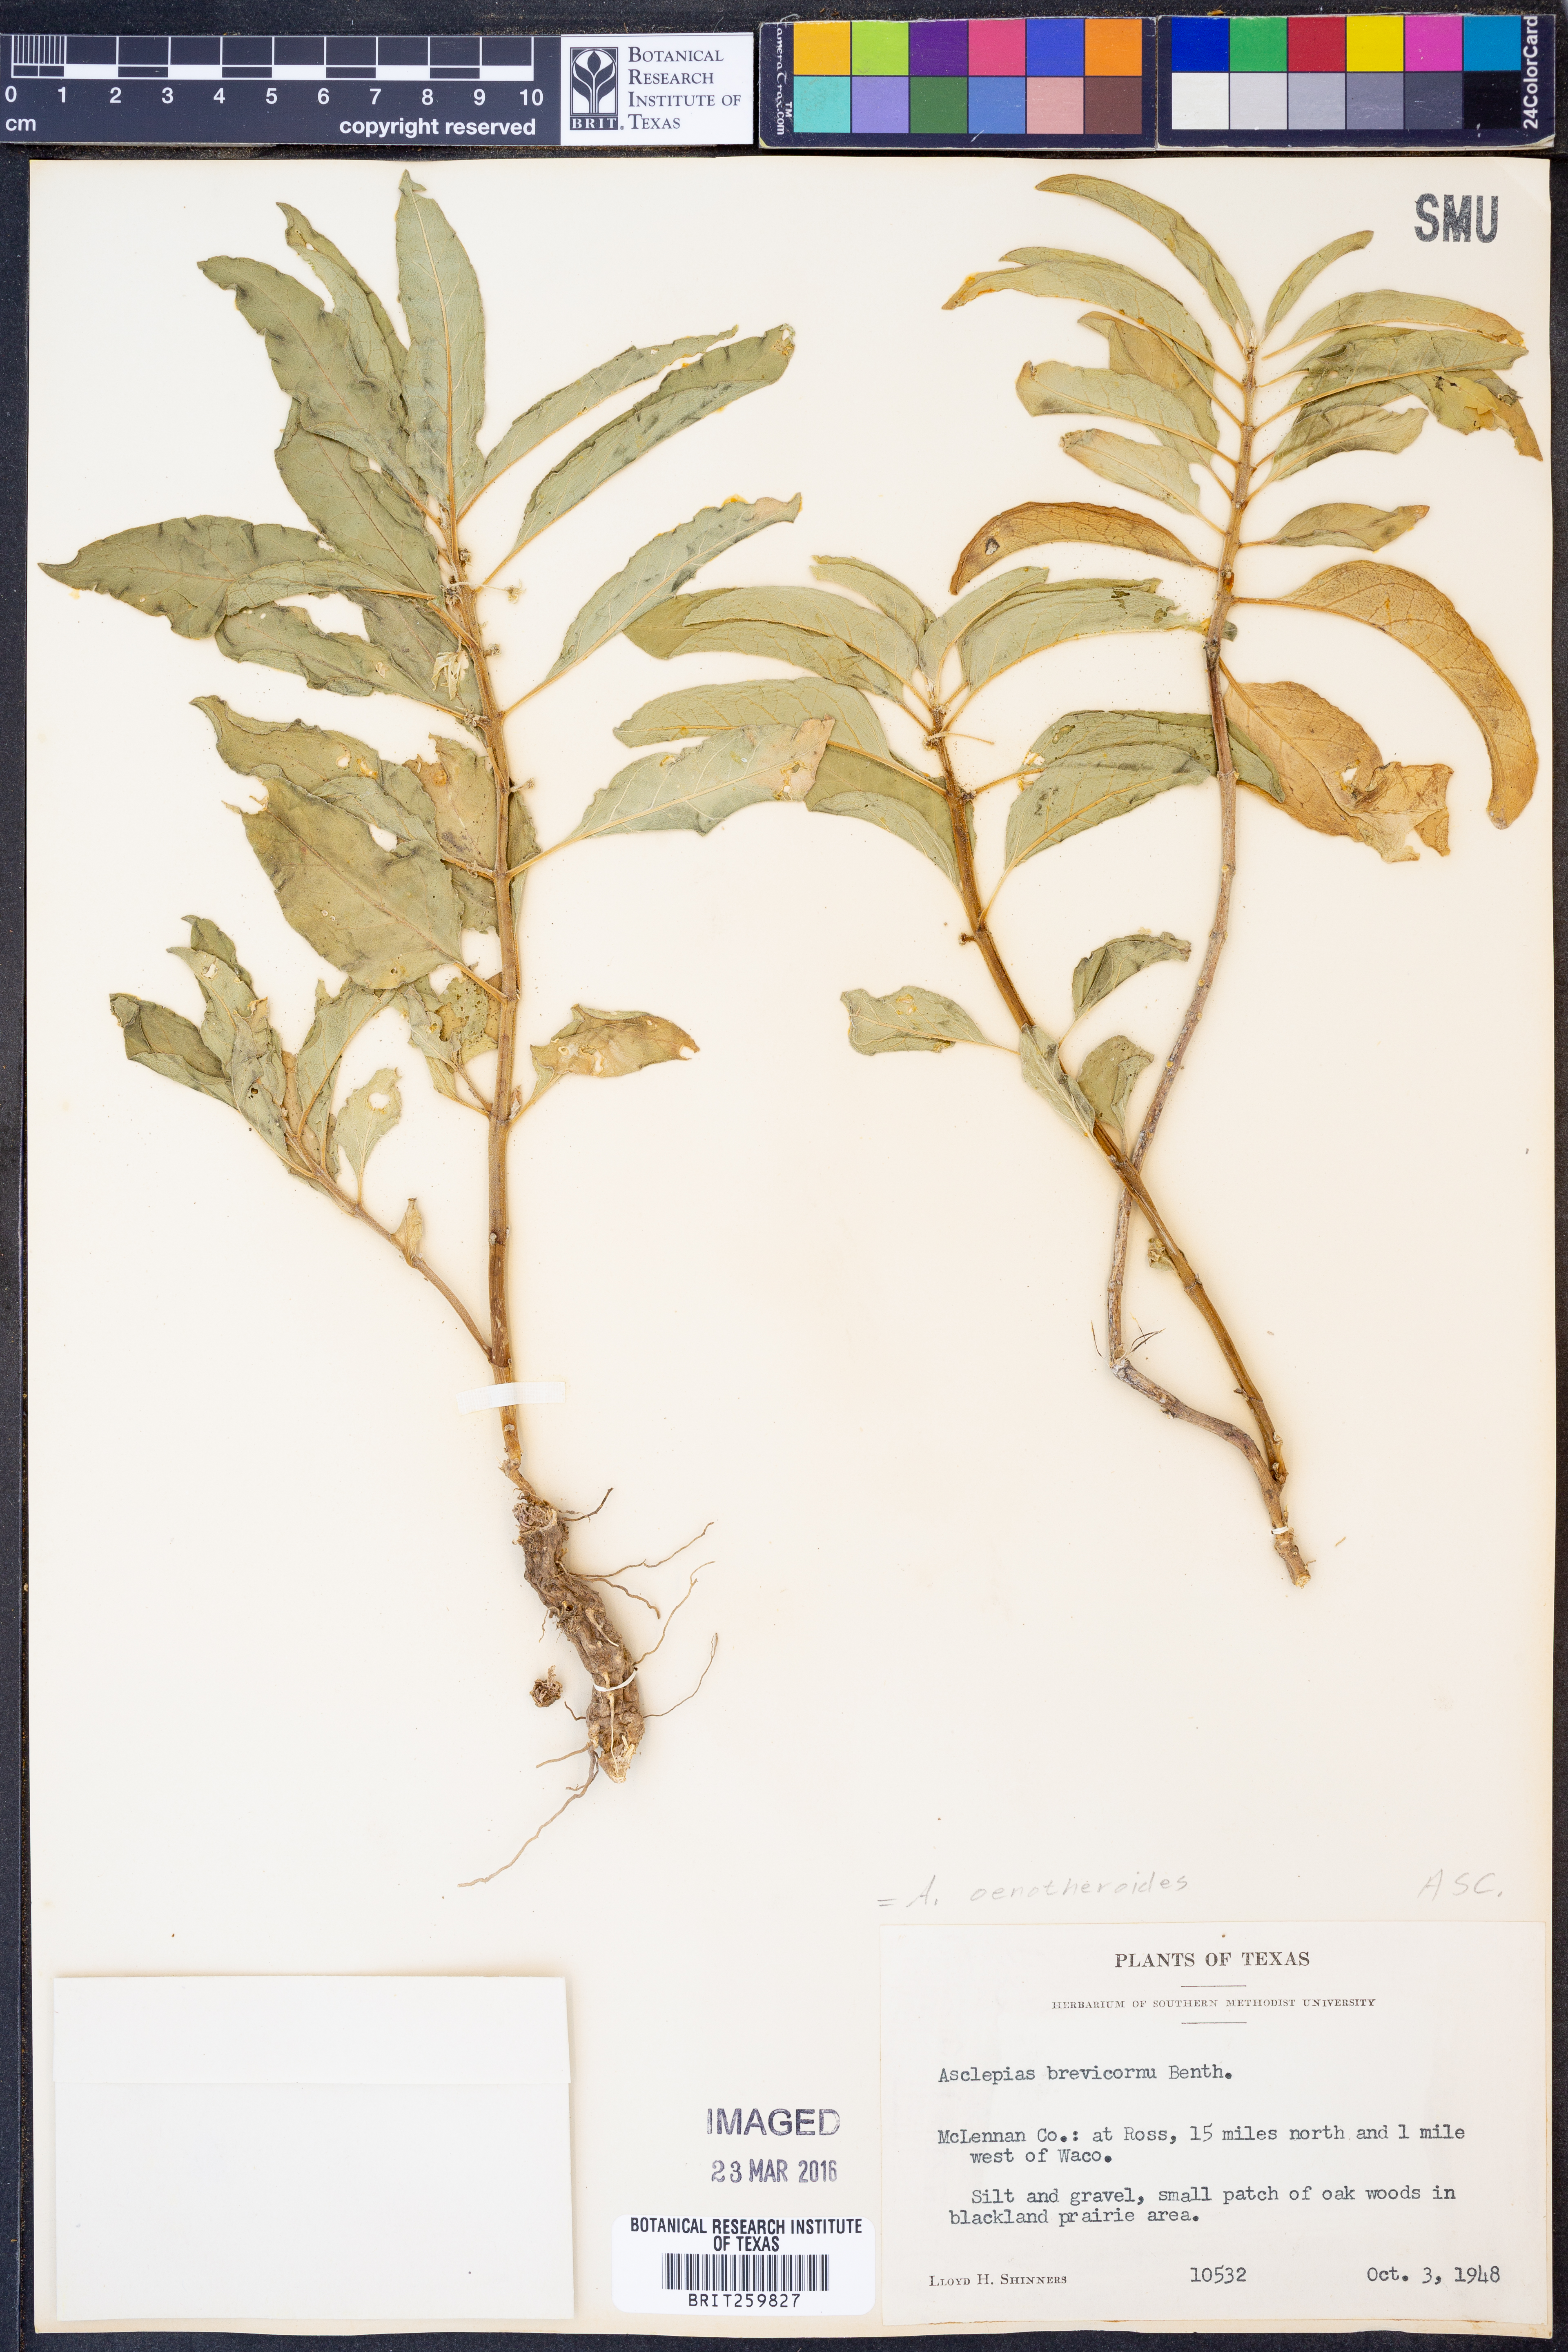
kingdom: Plantae
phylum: Tracheophyta
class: Magnoliopsida
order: Gentianales
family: Apocynaceae
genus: Asclepias
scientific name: Asclepias oenotheroides
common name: Zizotes milkweed
